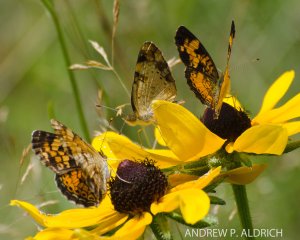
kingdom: Animalia
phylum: Arthropoda
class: Insecta
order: Lepidoptera
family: Nymphalidae
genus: Phyciodes
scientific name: Phyciodes
